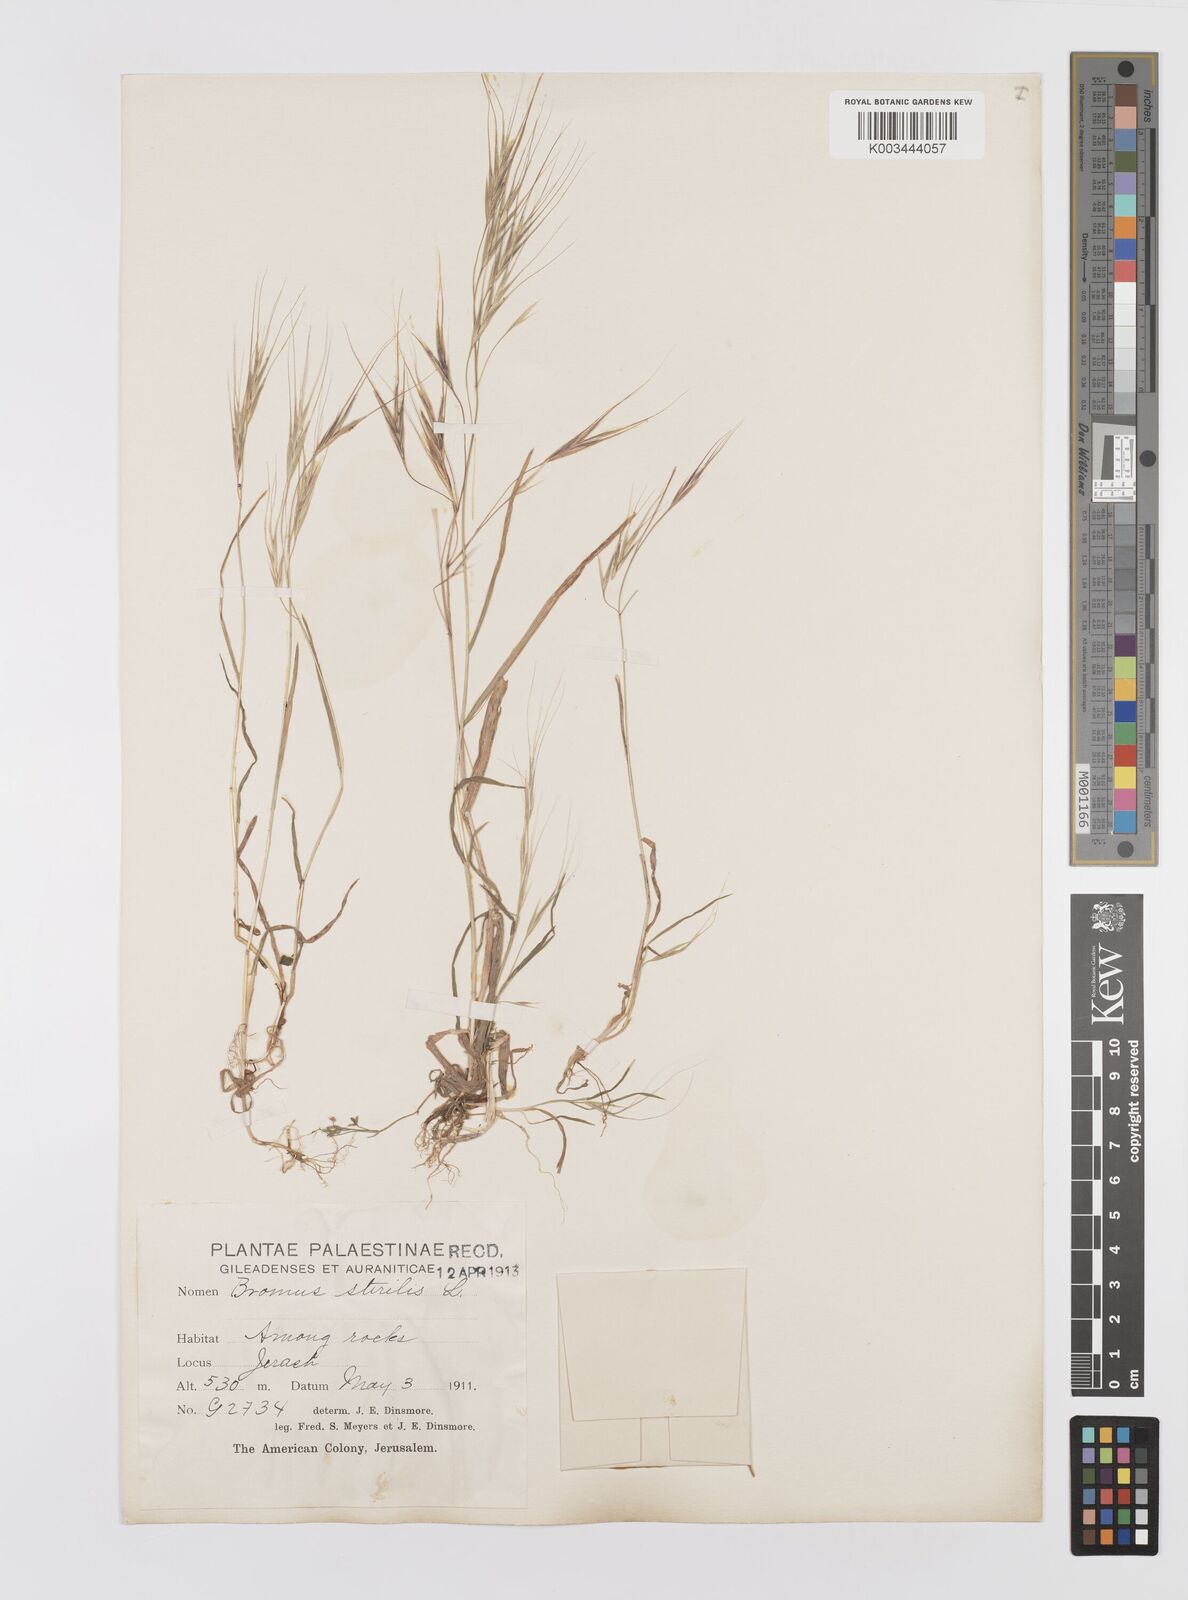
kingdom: Plantae
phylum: Tracheophyta
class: Liliopsida
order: Poales
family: Poaceae
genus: Bromus
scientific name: Bromus sterilis
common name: Poverty brome
